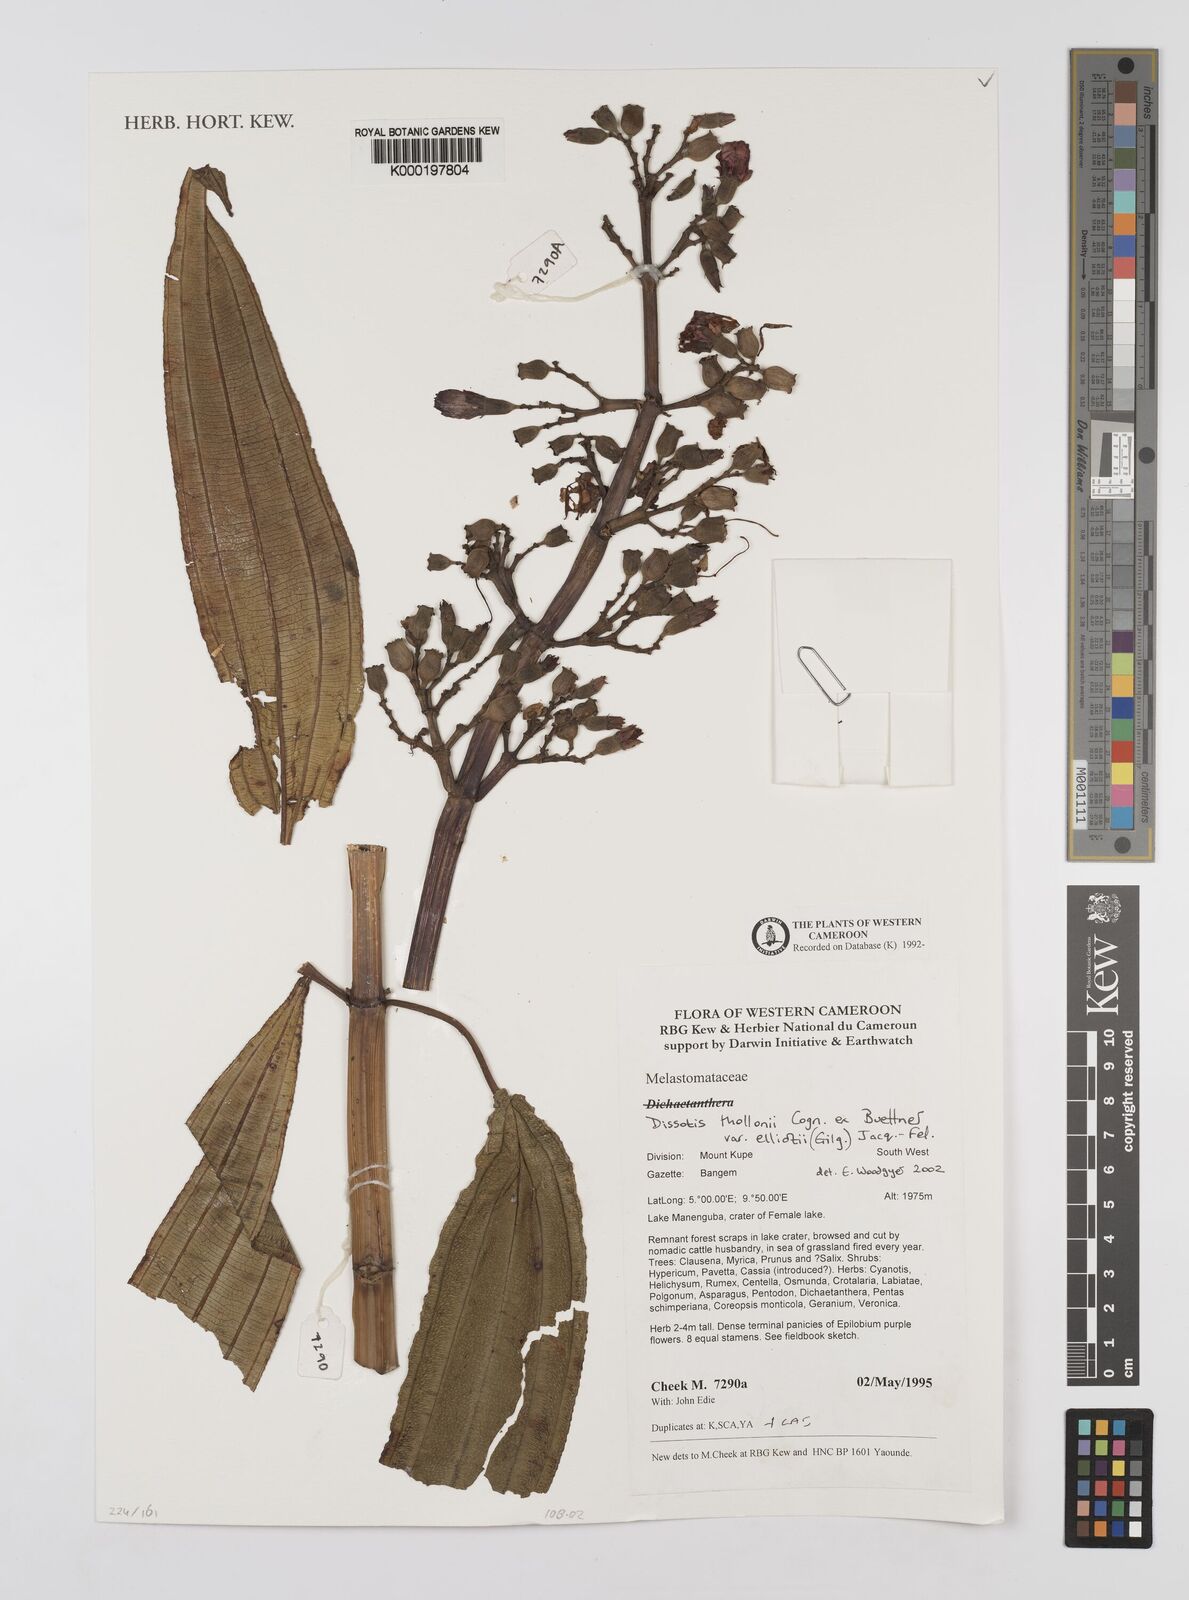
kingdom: Plantae
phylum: Tracheophyta
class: Magnoliopsida
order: Myrtales
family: Melastomataceae
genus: Dissotis
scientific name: Dissotis
